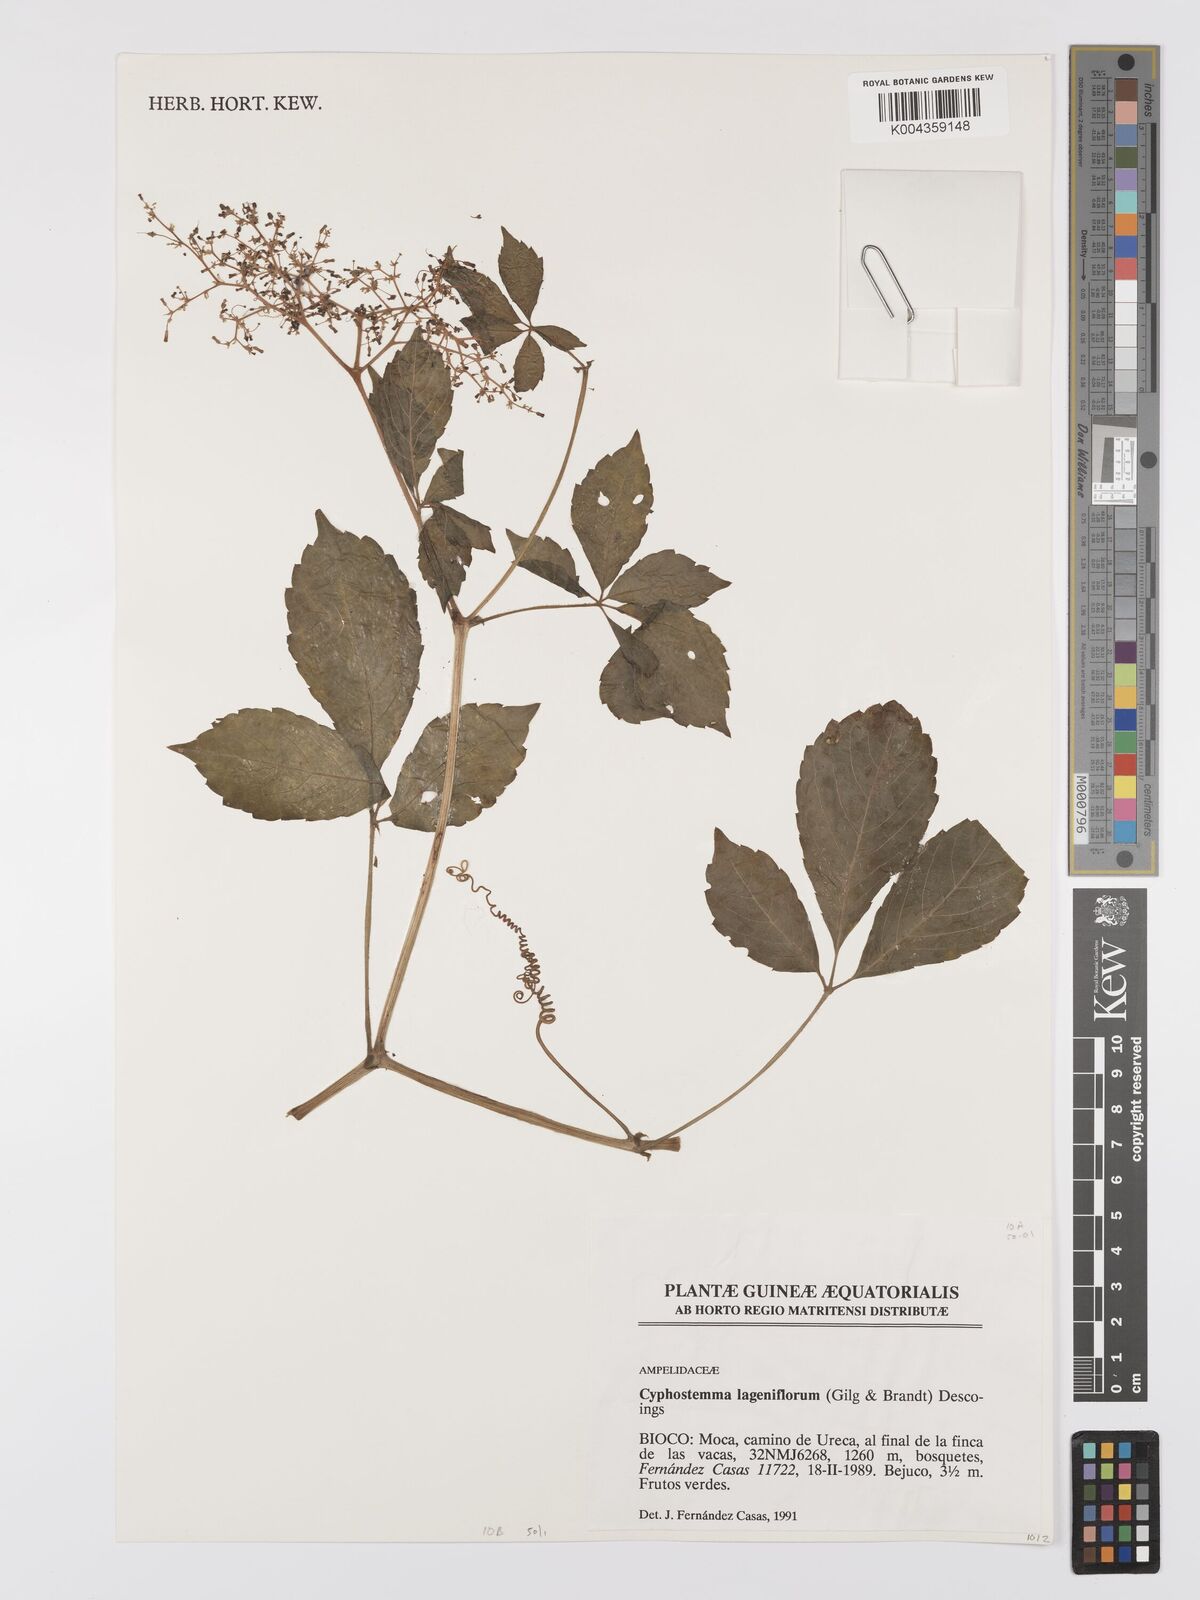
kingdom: Plantae
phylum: Tracheophyta
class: Magnoliopsida
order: Vitales
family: Vitaceae
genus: Cyphostemma
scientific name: Cyphostemma lageniflorum
